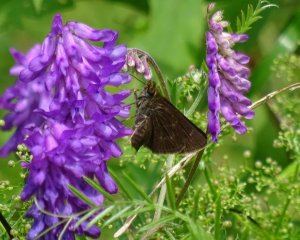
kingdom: Animalia
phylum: Arthropoda
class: Insecta
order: Lepidoptera
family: Hesperiidae
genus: Euphyes
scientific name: Euphyes vestris
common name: Dun Skipper
